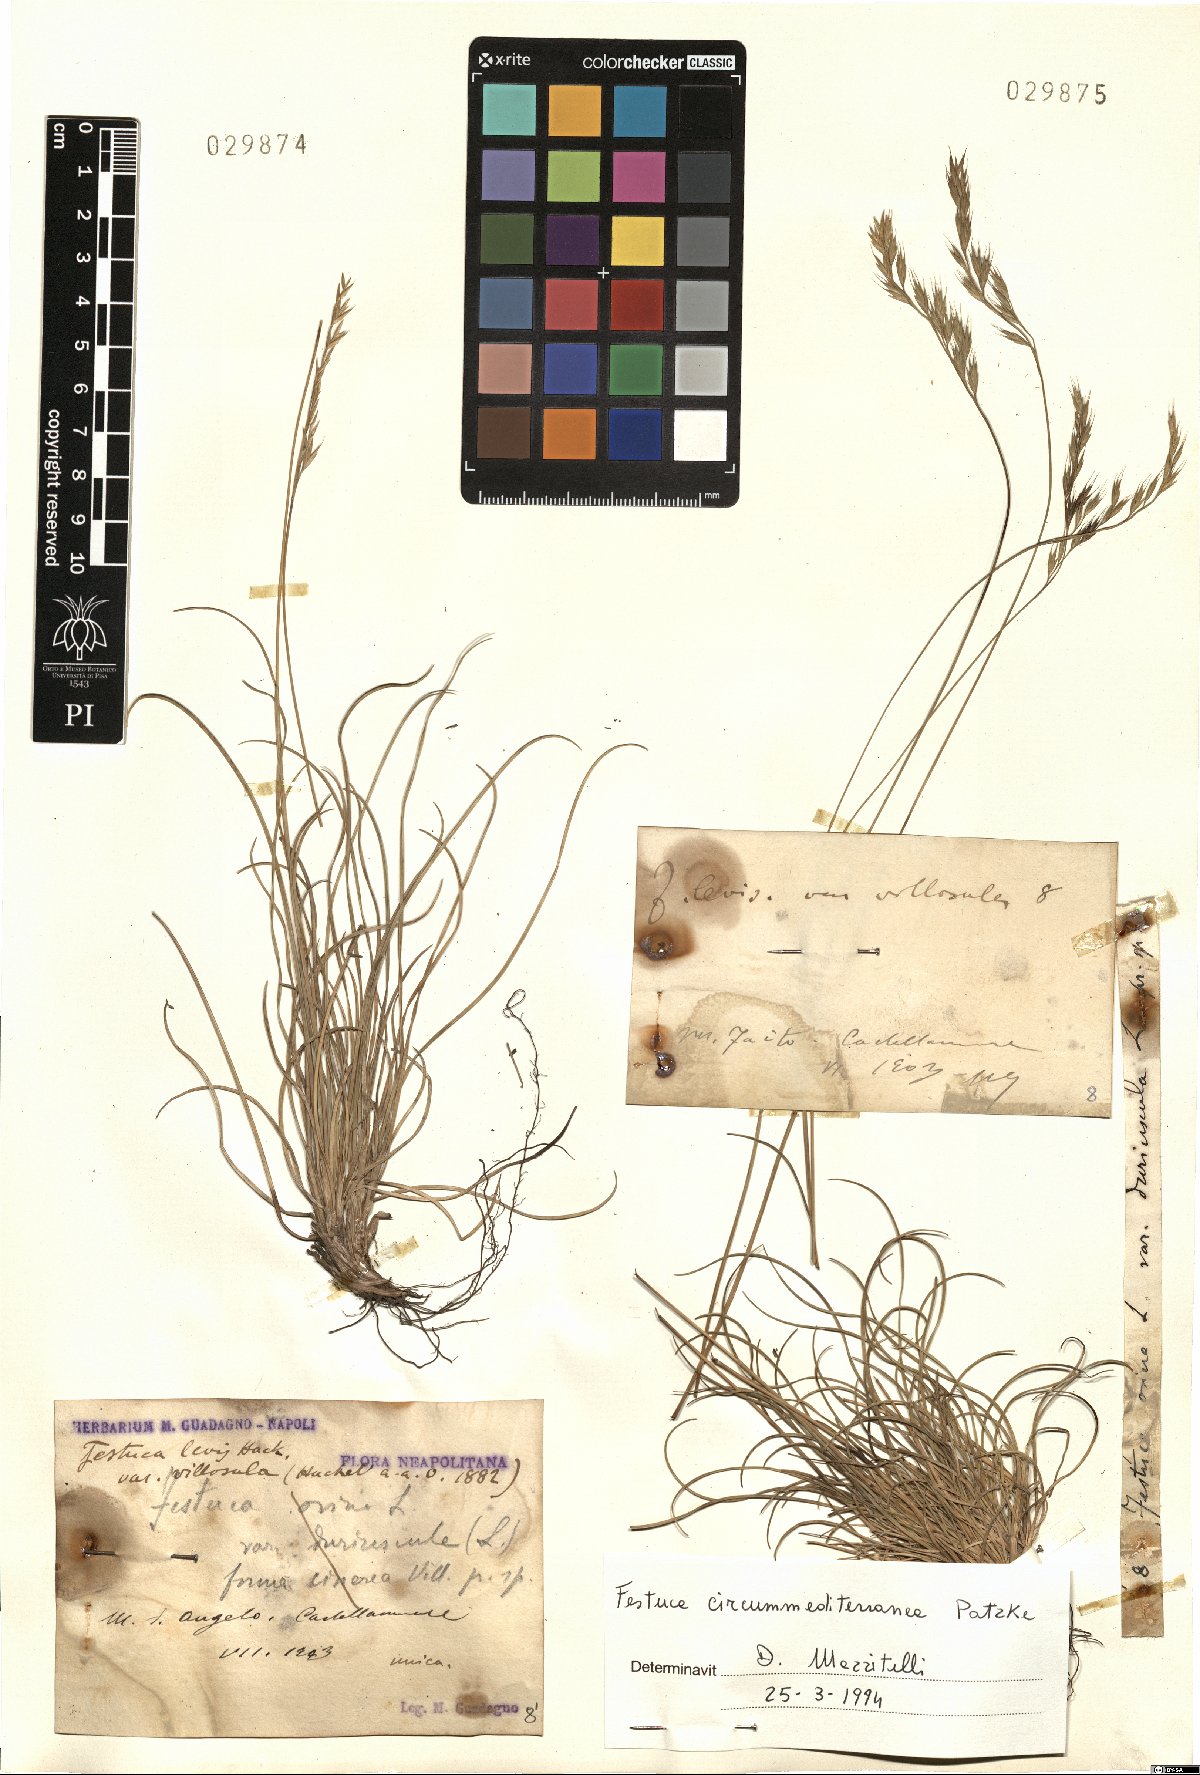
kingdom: Plantae
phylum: Tracheophyta
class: Liliopsida
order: Poales
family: Poaceae
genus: Festuca
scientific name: Festuca circummediterranea
